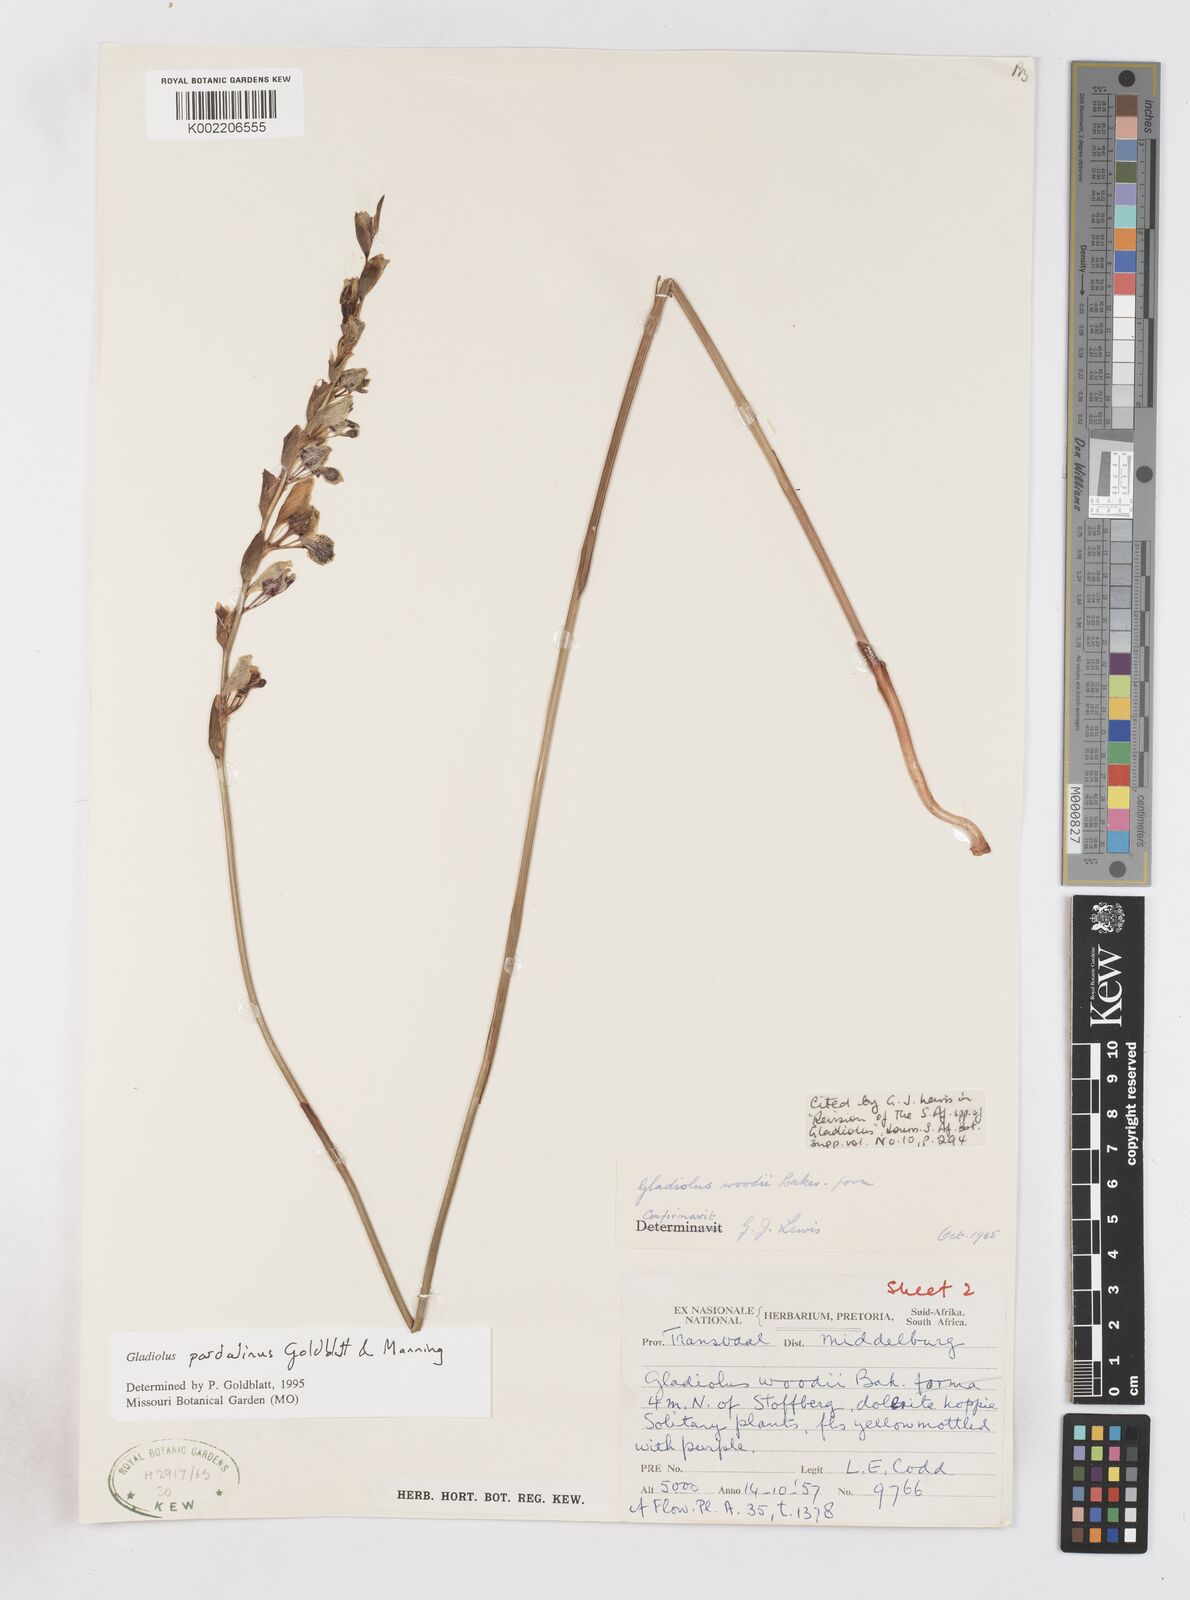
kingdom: Plantae
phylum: Tracheophyta
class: Liliopsida
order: Asparagales
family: Iridaceae
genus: Gladiolus
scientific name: Gladiolus pardalinus
